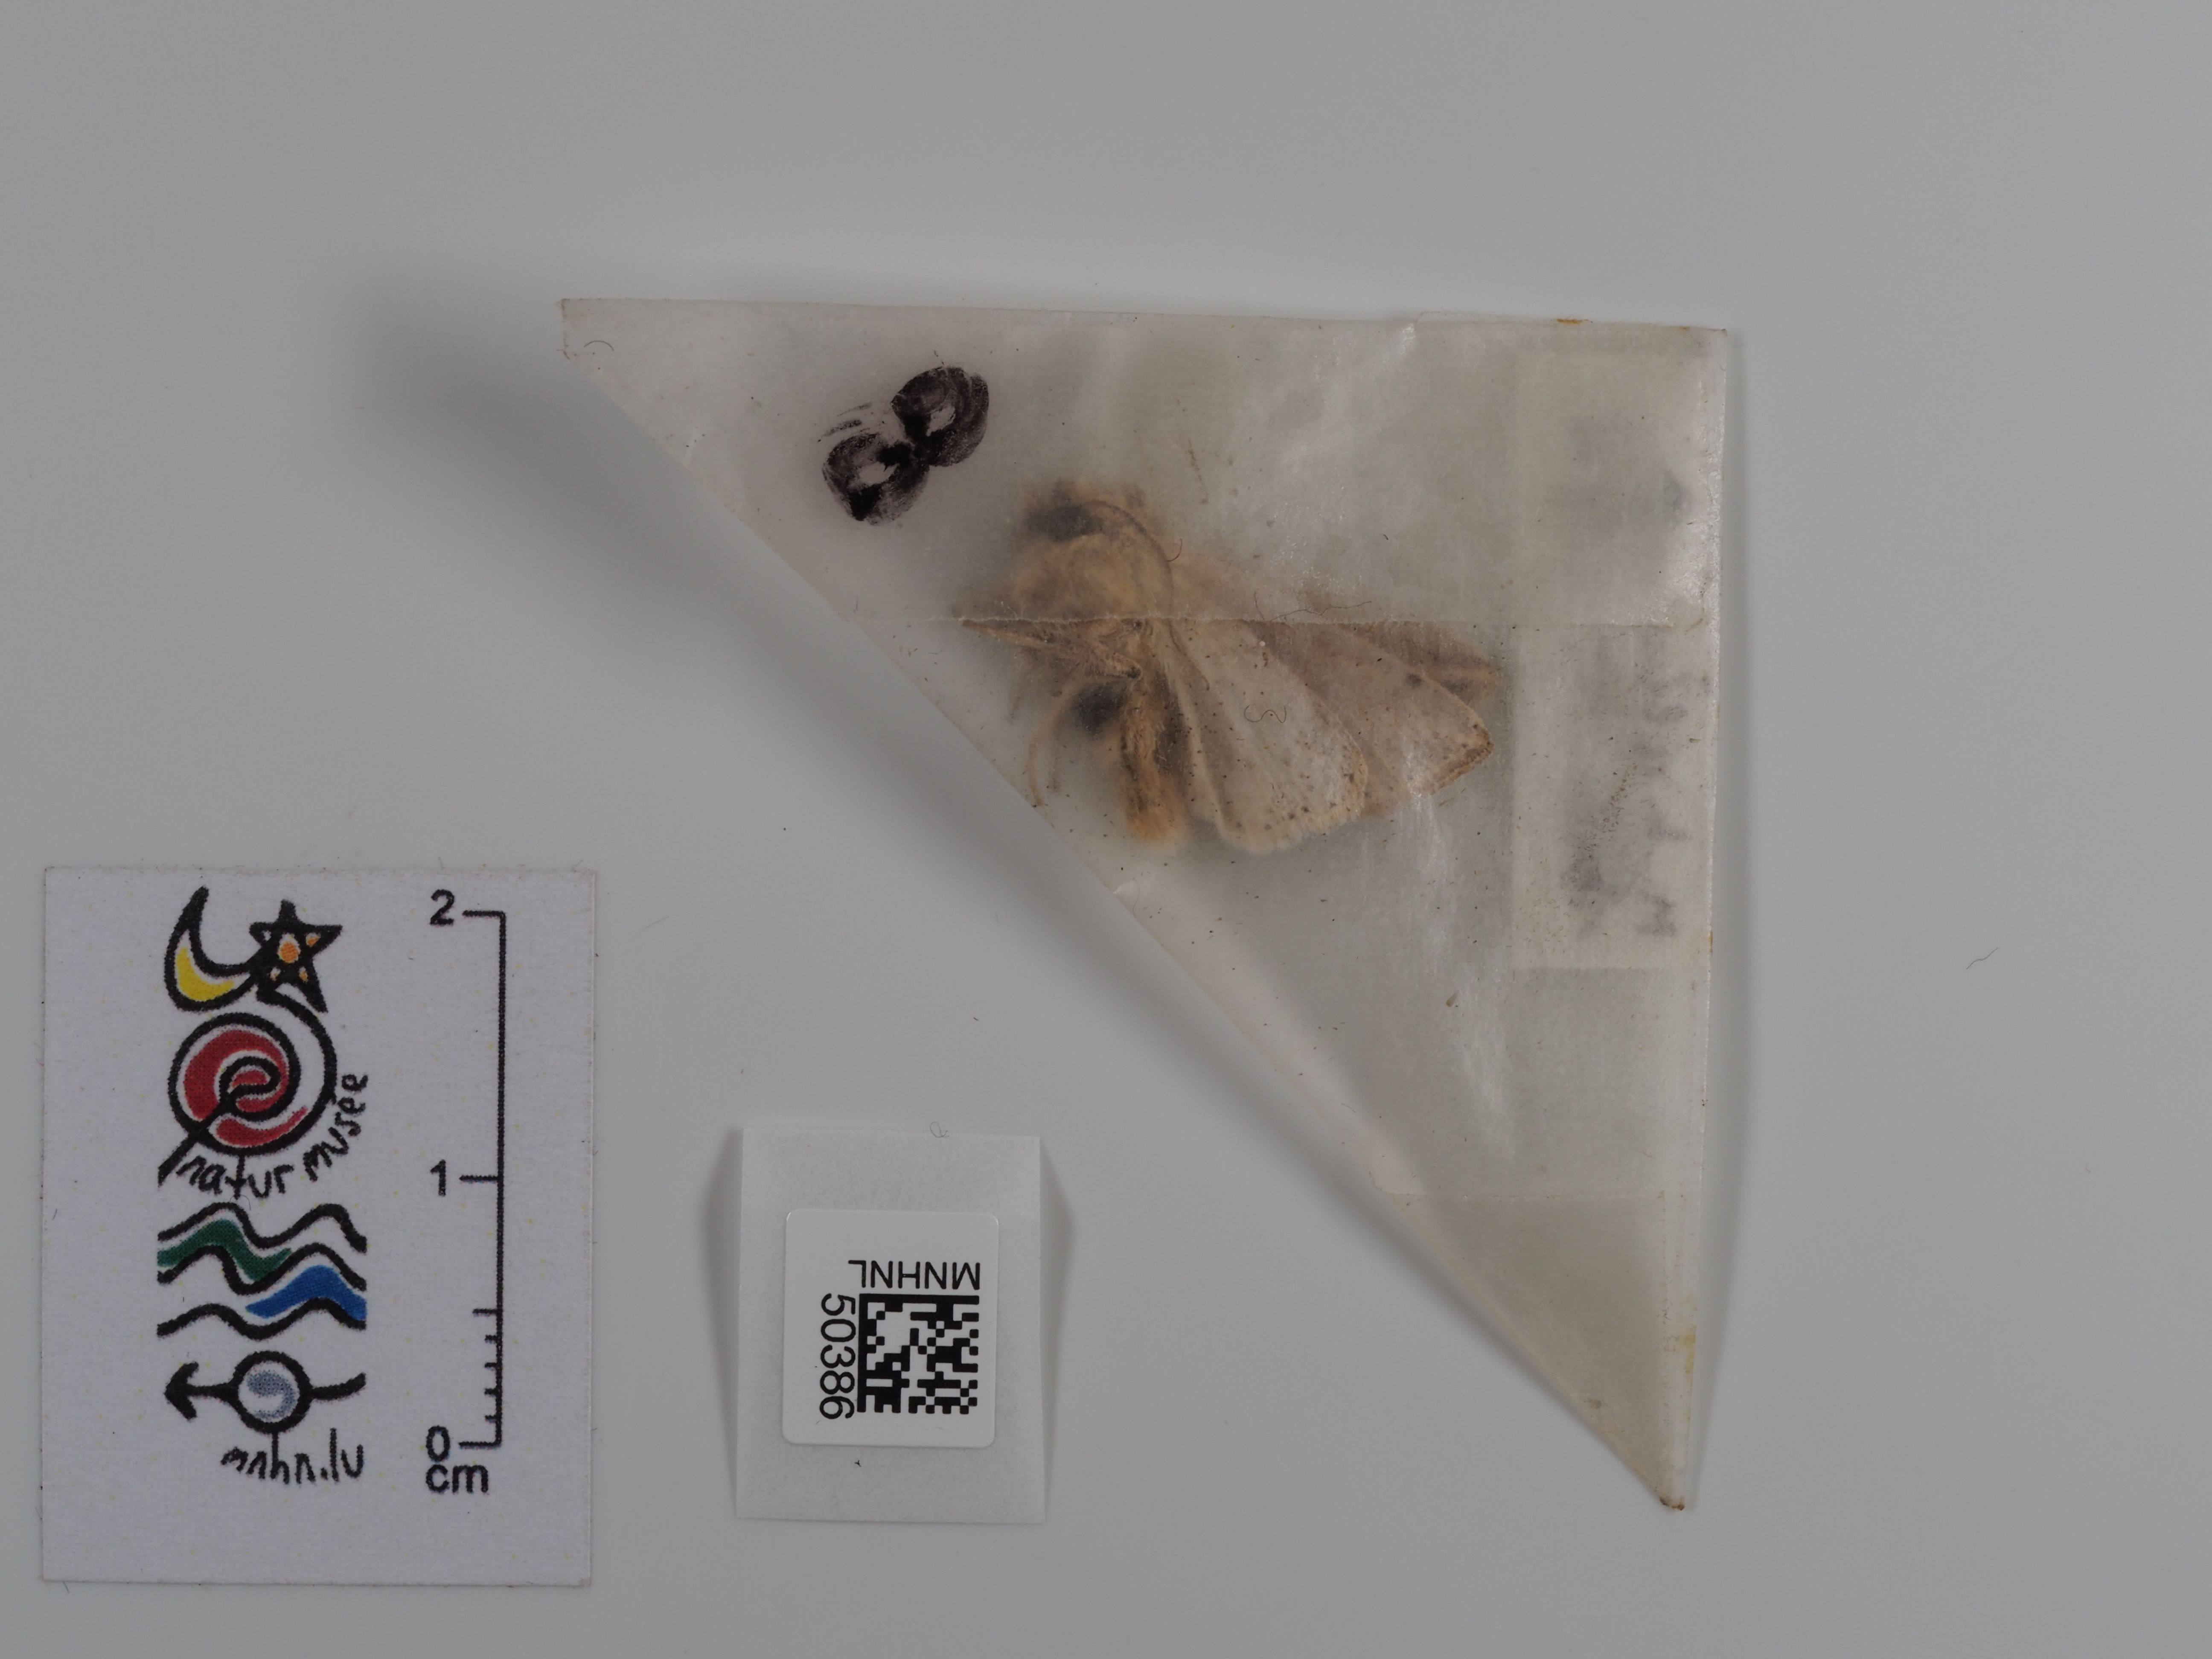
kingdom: Animalia
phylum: Arthropoda
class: Insecta
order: Lepidoptera
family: Noctuidae
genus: Mythimna
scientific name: Mythimna l-album
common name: L-album wainscot
